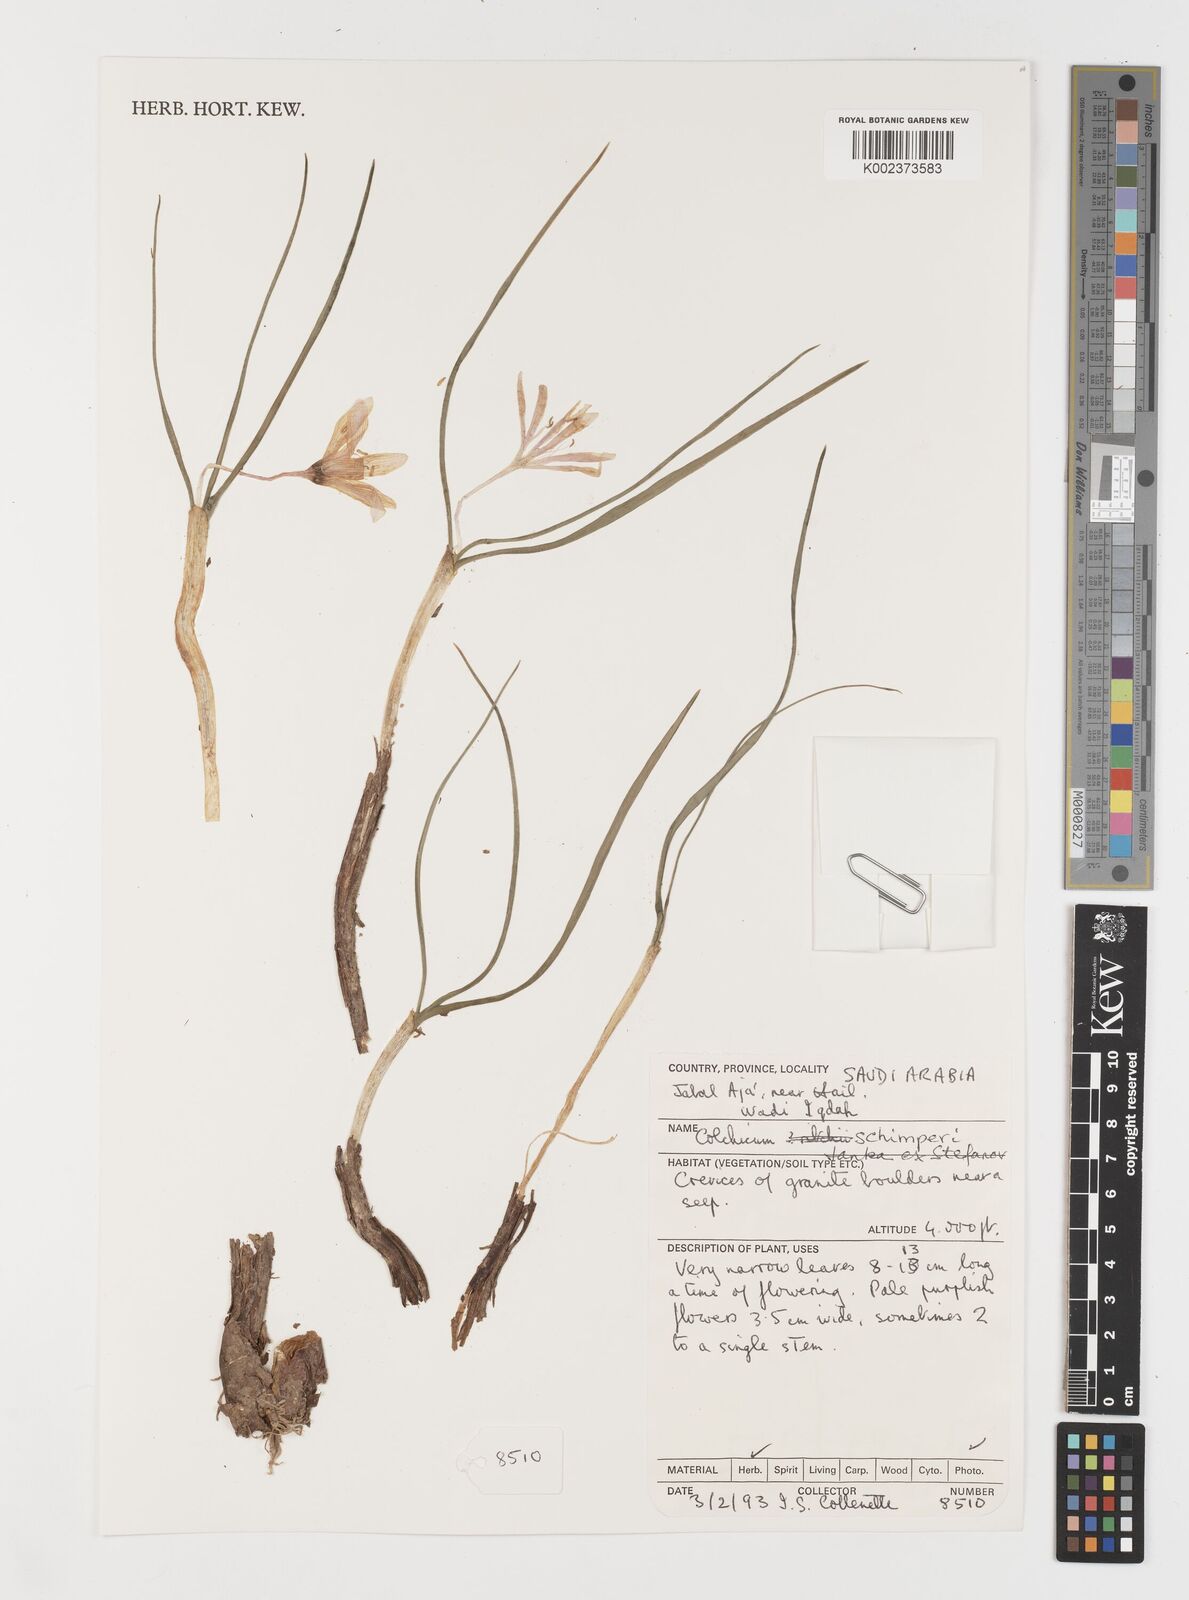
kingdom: Plantae
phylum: Tracheophyta
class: Liliopsida
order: Liliales
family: Colchicaceae
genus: Colchicum
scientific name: Colchicum schimperi
